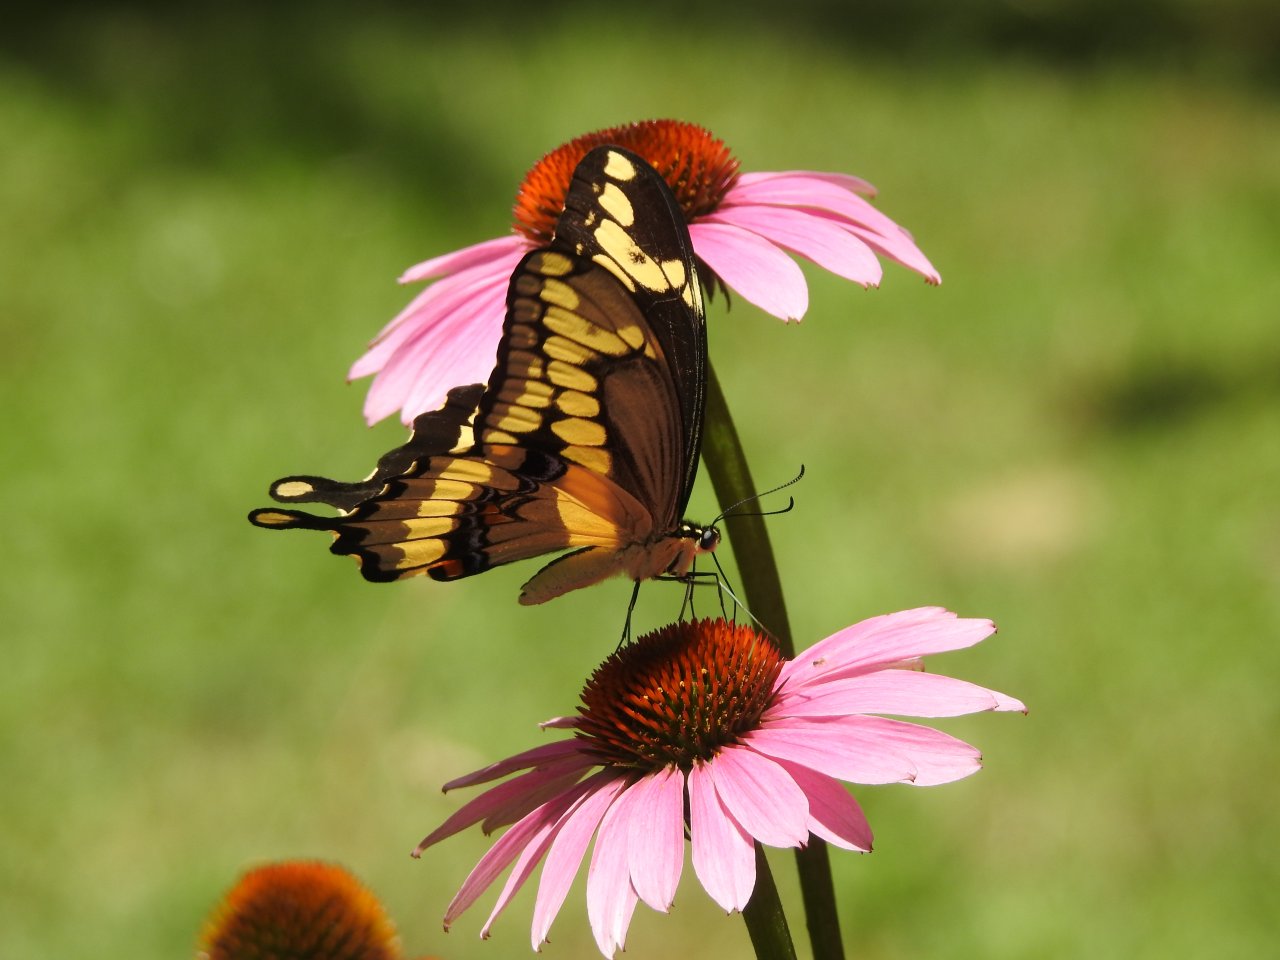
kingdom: Animalia
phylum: Arthropoda
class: Insecta
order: Lepidoptera
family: Papilionidae
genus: Papilio
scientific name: Papilio cresphontes
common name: Eastern Giant Swallowtail
